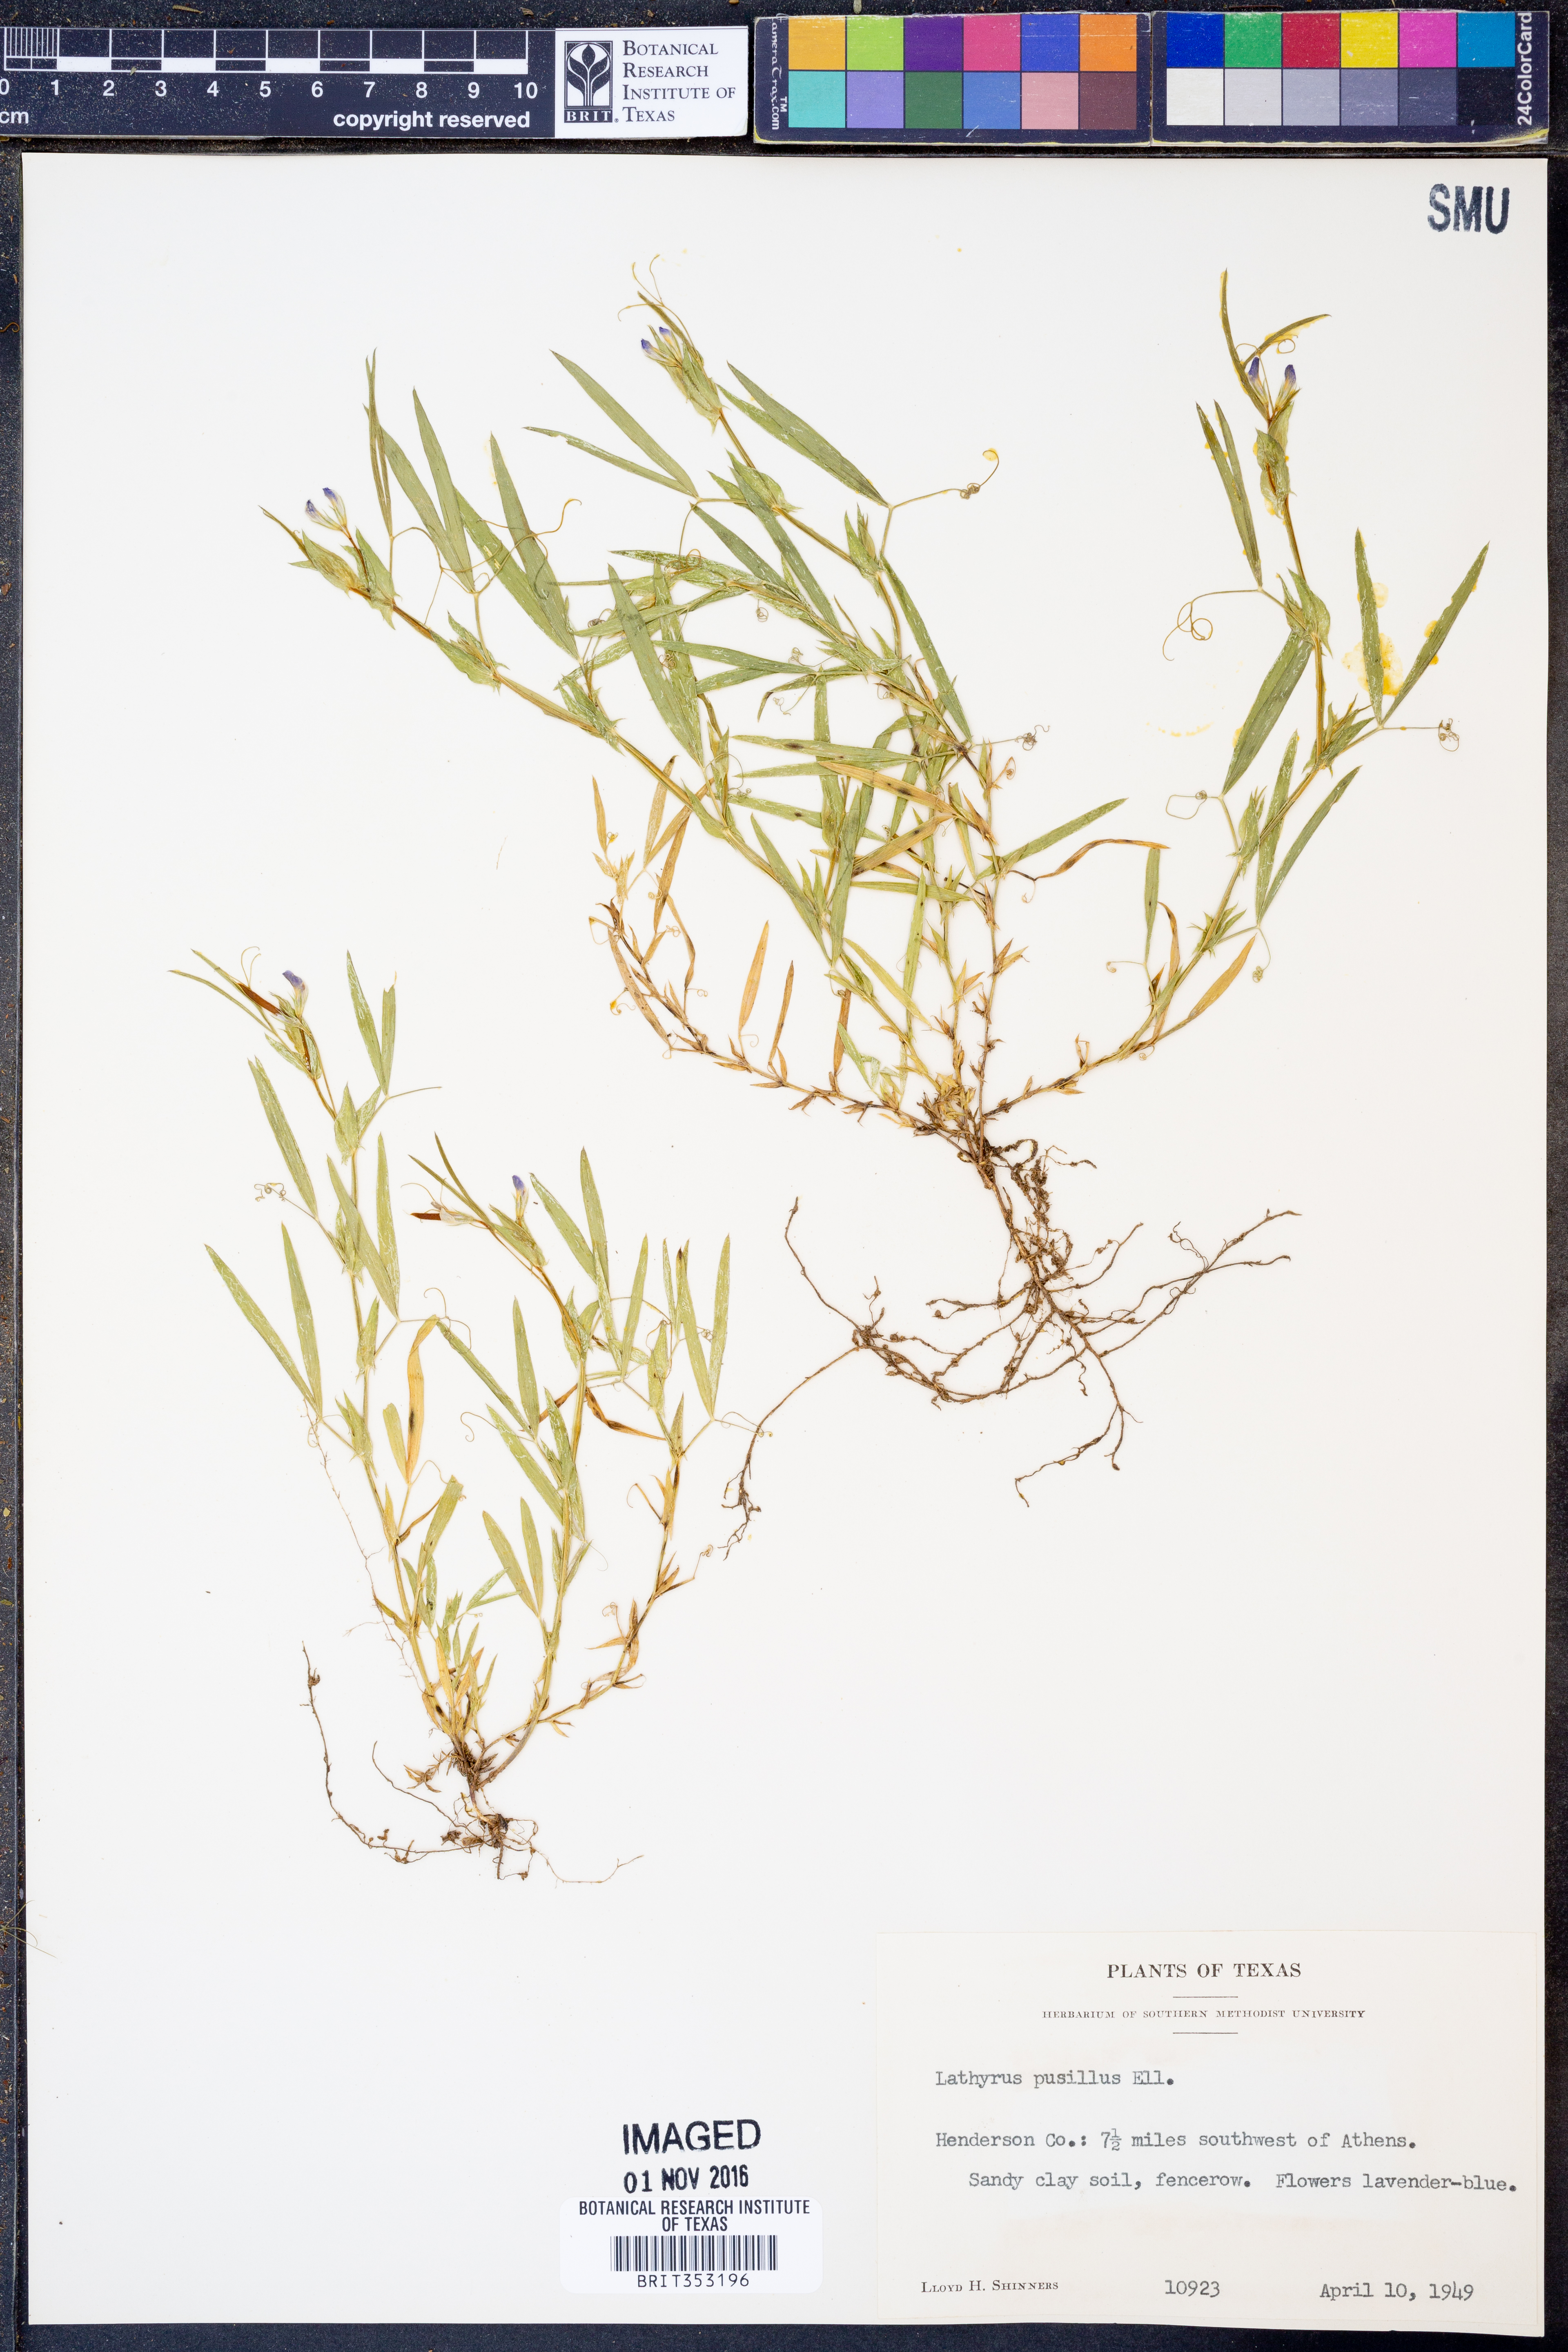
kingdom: Plantae
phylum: Tracheophyta
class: Magnoliopsida
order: Fabales
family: Fabaceae
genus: Lathyrus
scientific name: Lathyrus pusillus
